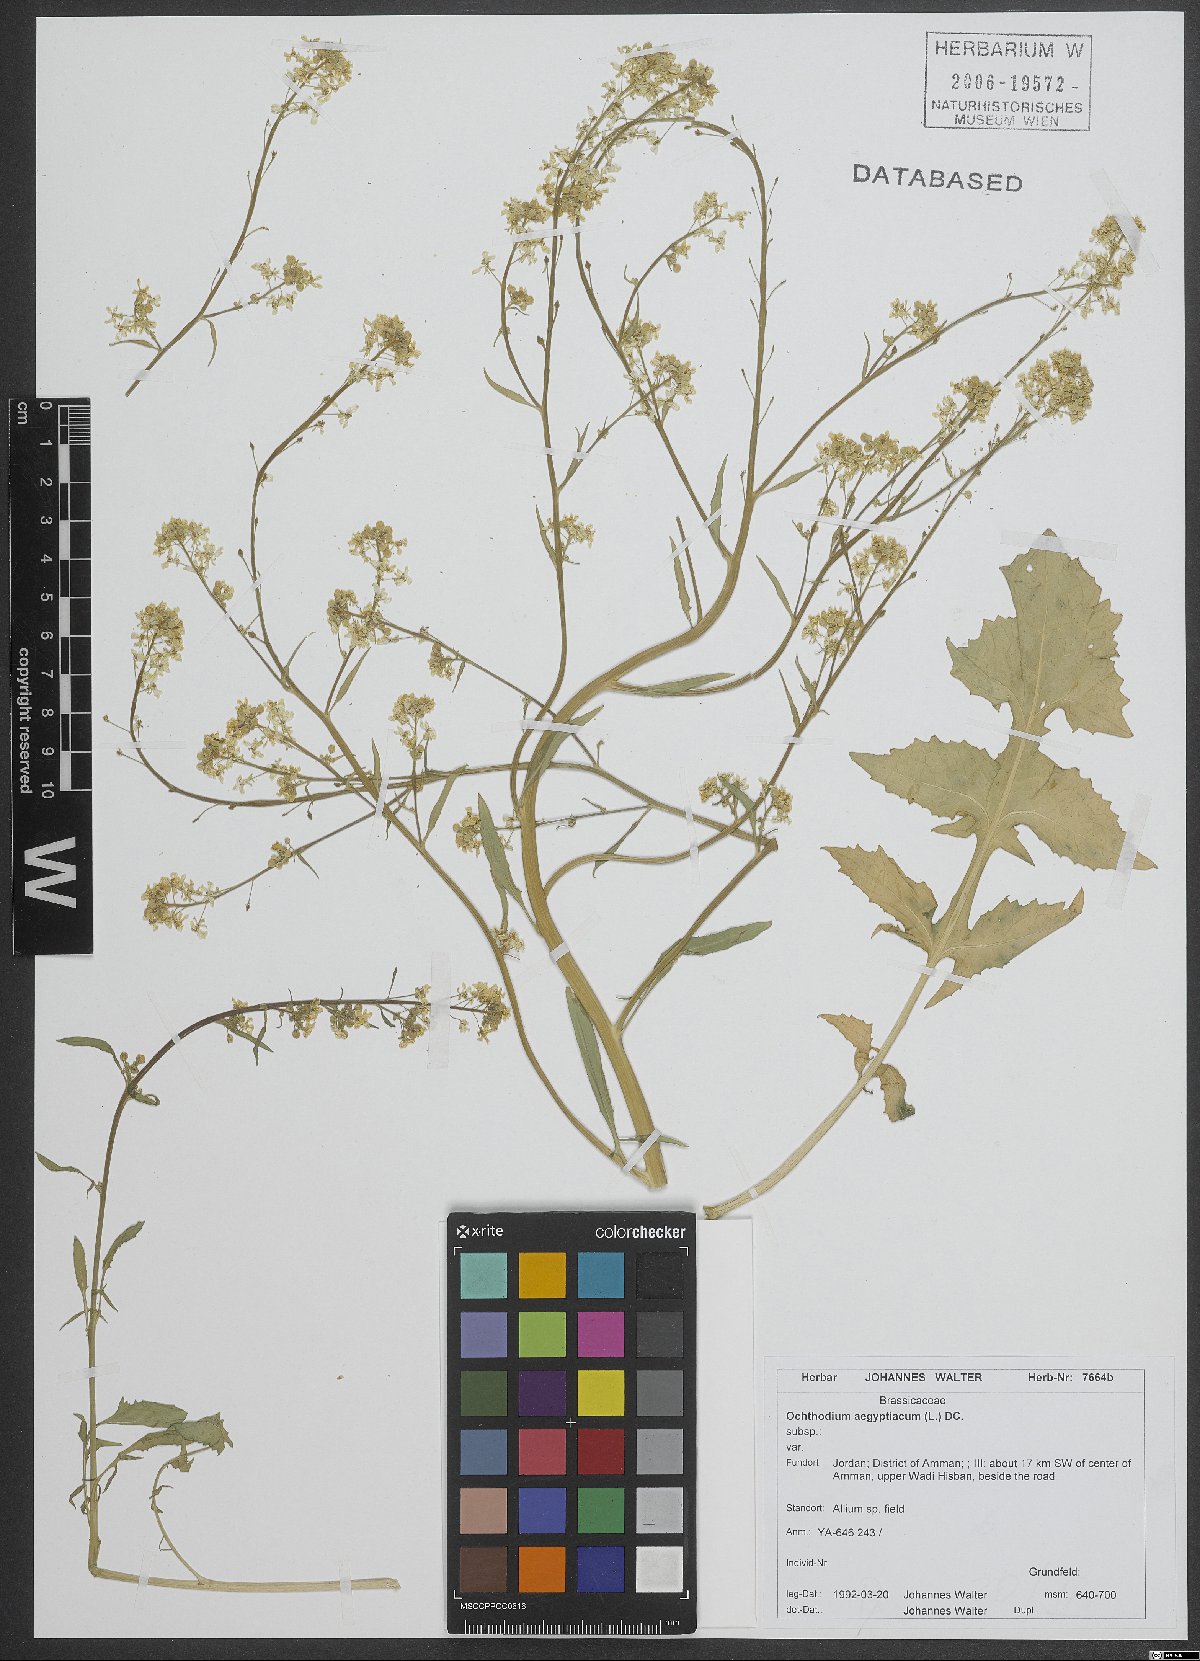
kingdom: Plantae
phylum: Tracheophyta
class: Magnoliopsida
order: Brassicales
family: Brassicaceae
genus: Ochthodium
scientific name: Ochthodium aegyptiacum
